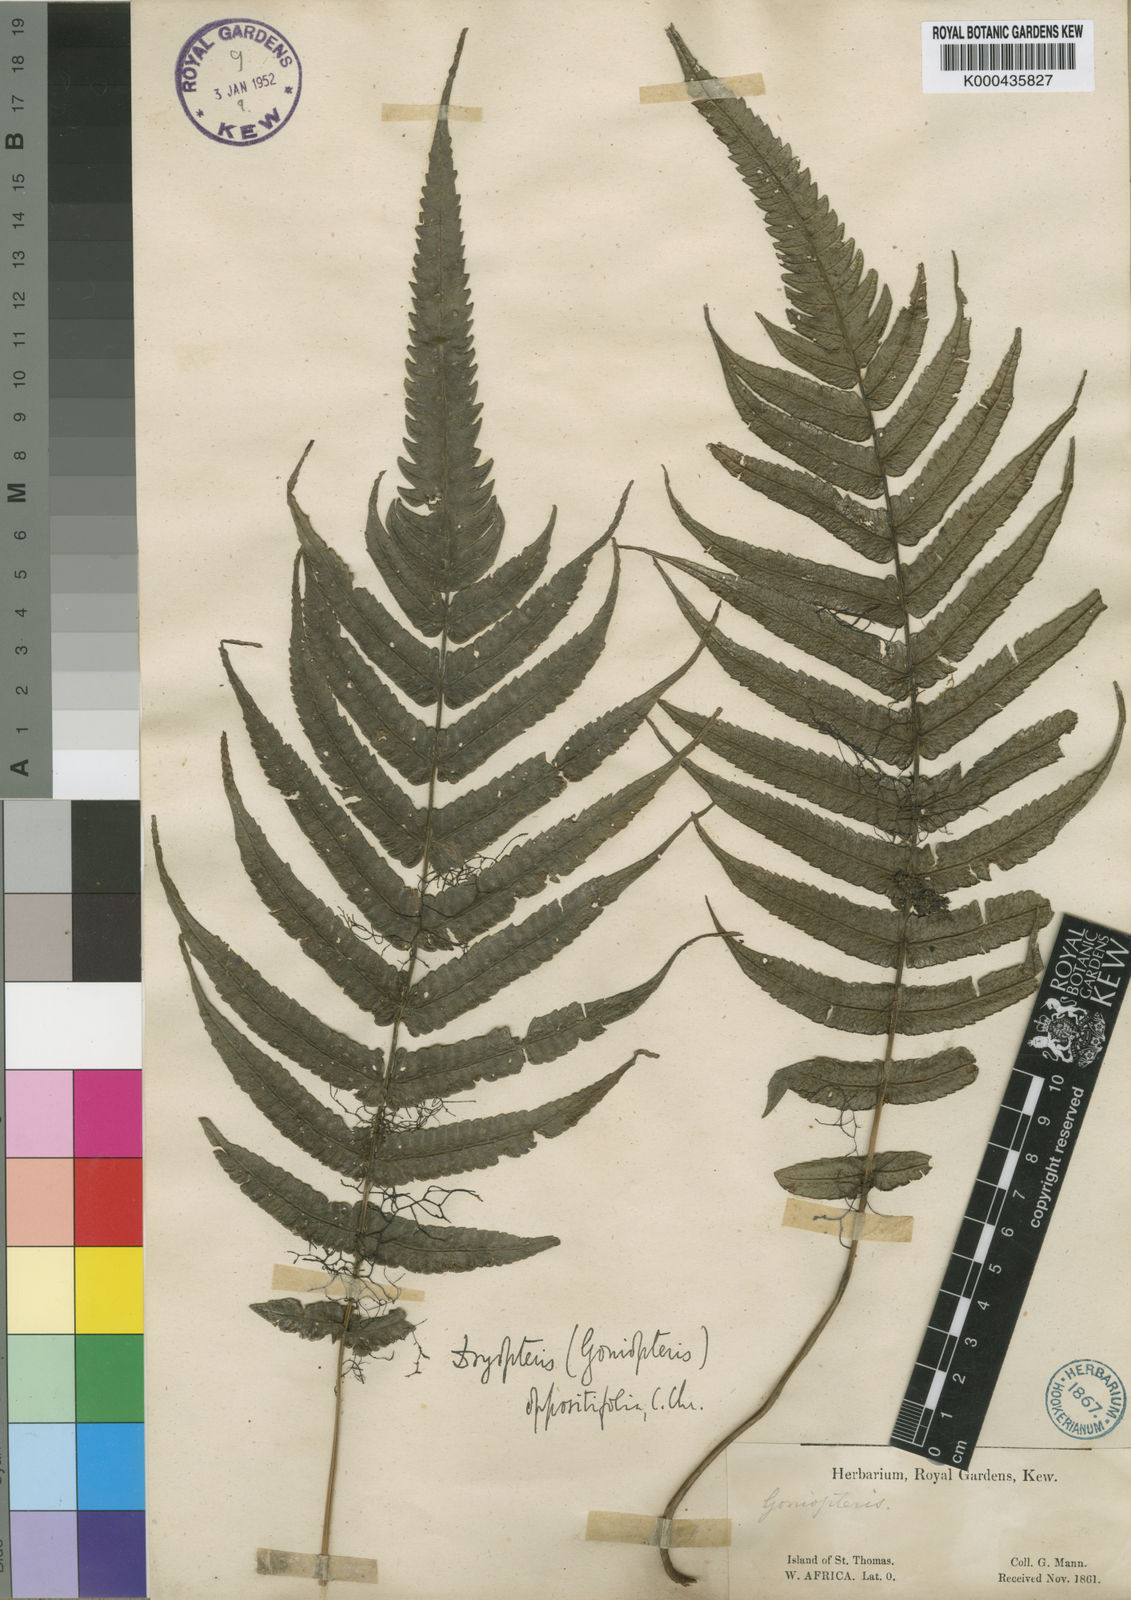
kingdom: Plantae
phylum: Tracheophyta
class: Polypodiopsida
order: Polypodiales
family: Thelypteridaceae
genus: Menisorus
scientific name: Menisorus oppositifolius
